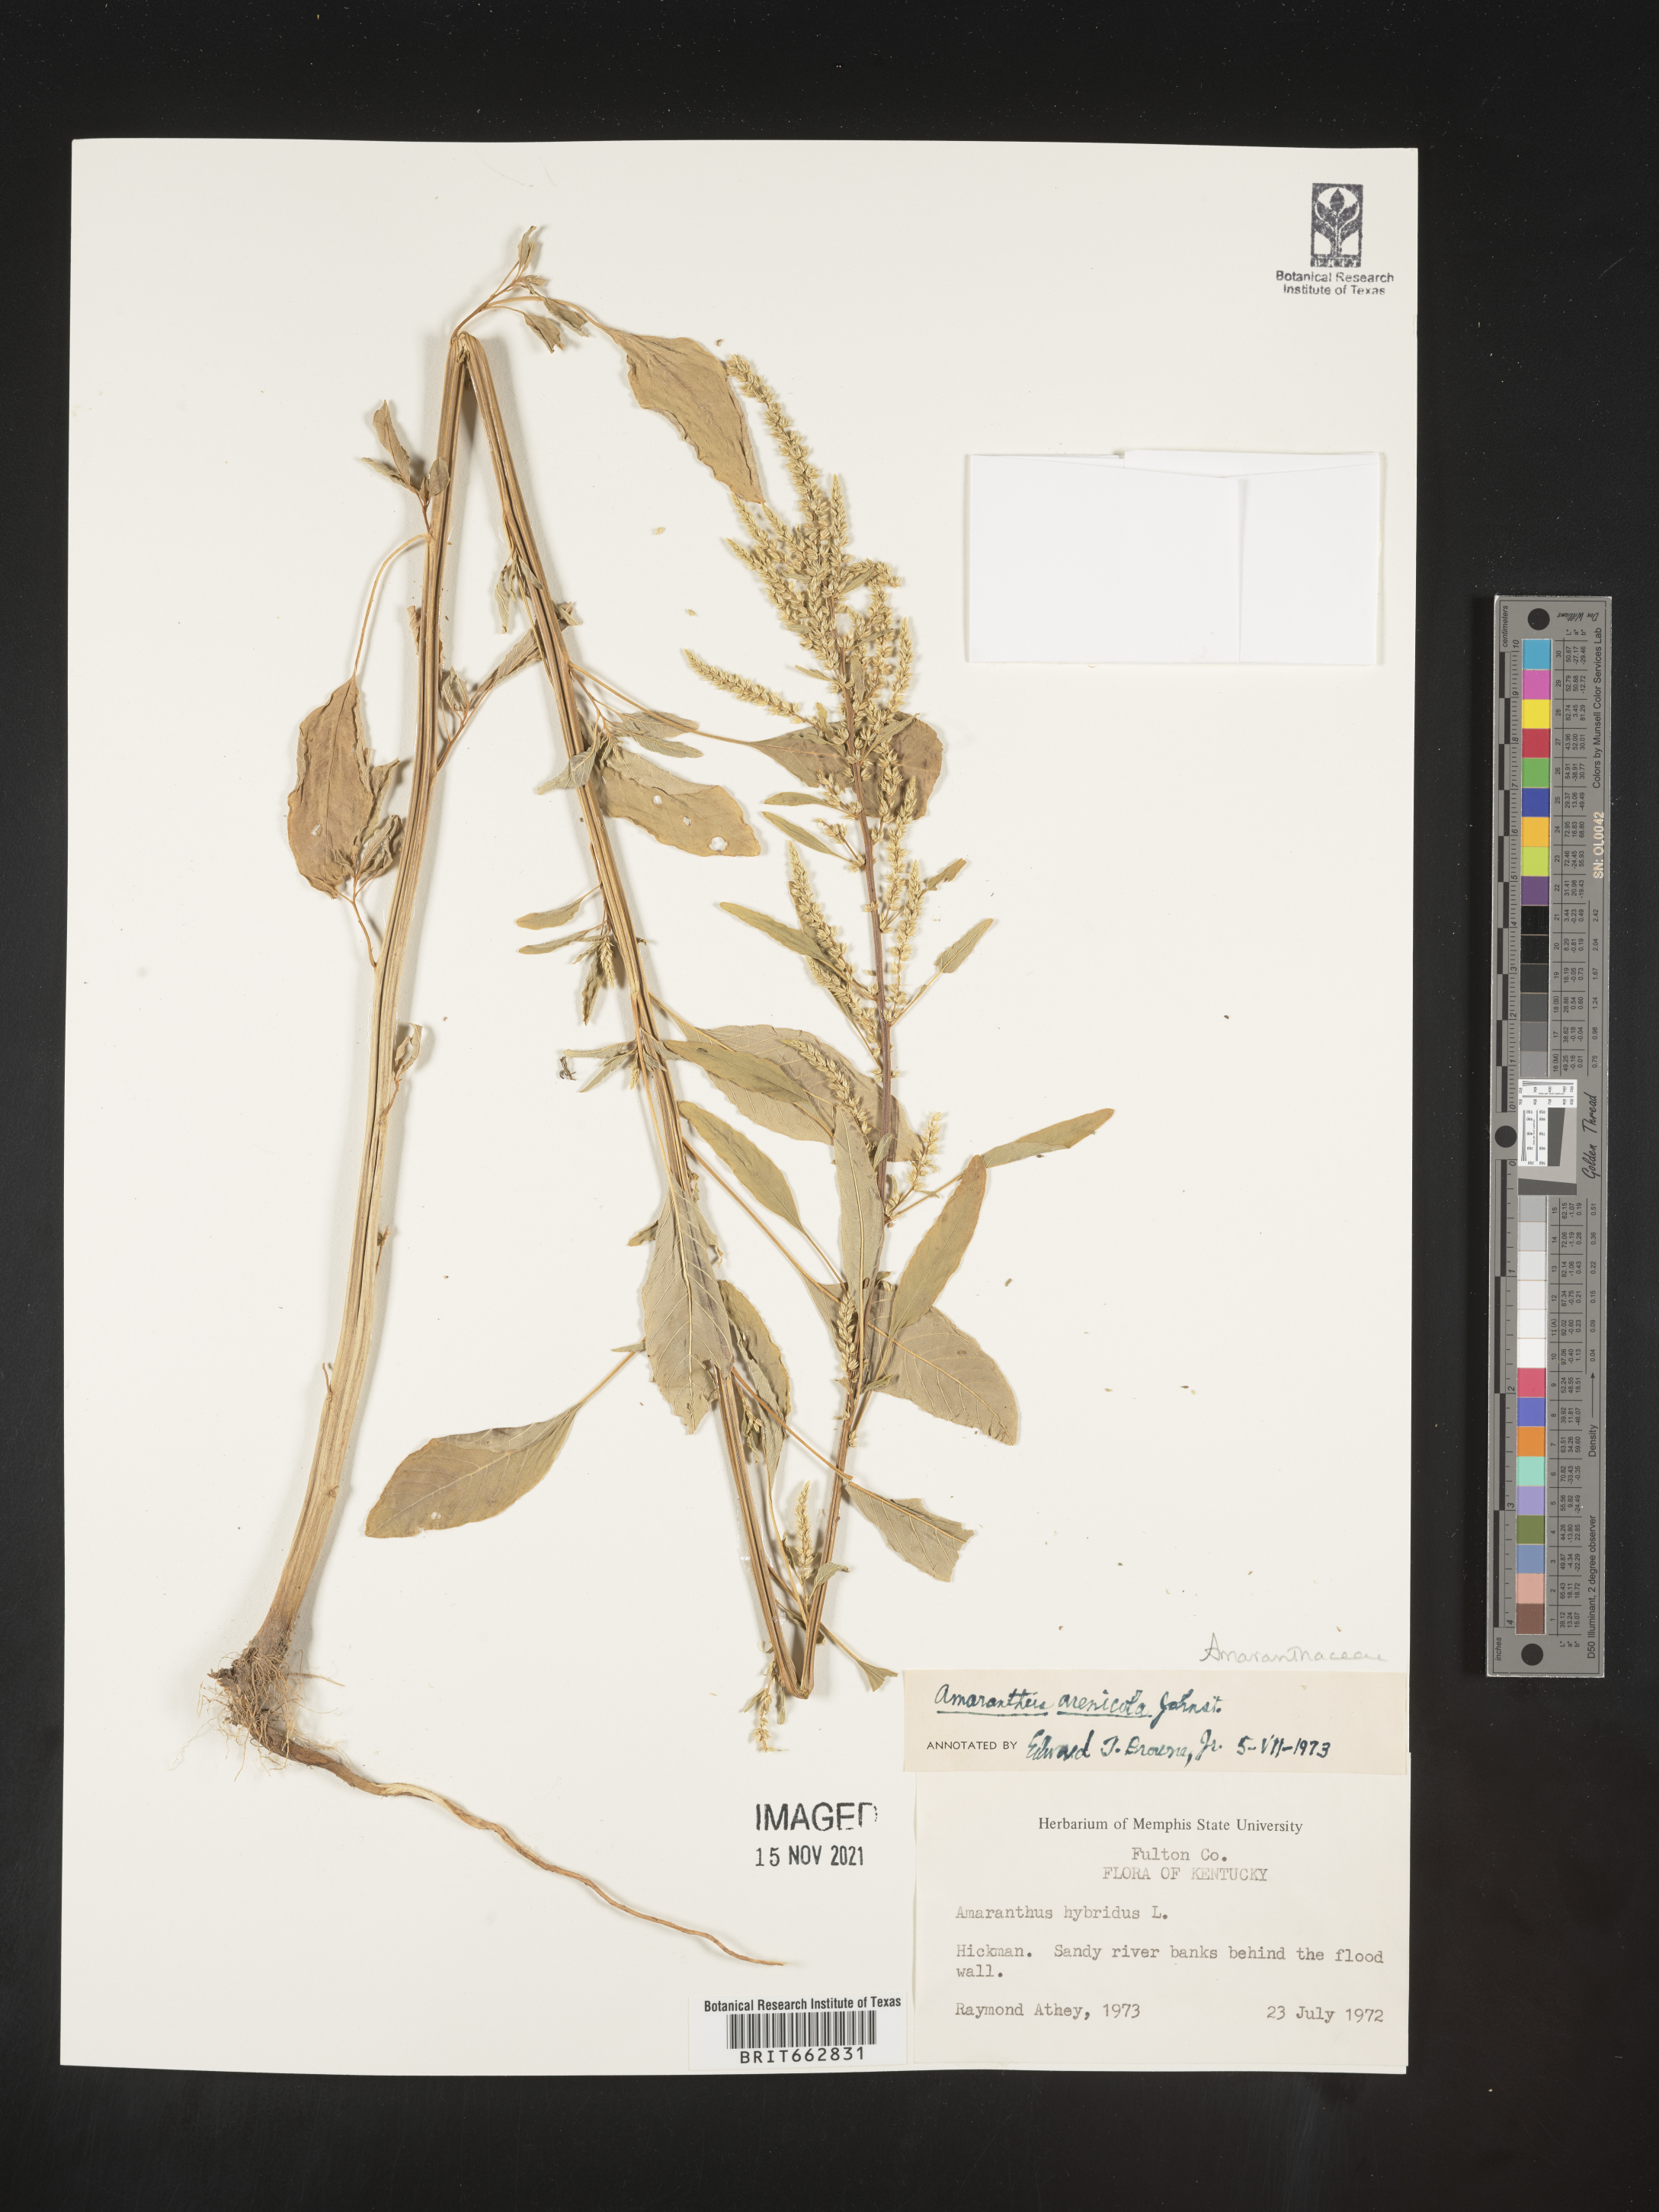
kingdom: Plantae
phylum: Tracheophyta
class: Magnoliopsida
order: Caryophyllales
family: Amaranthaceae
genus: Amaranthus
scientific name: Amaranthus arenicola
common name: Sandhills amaranth
